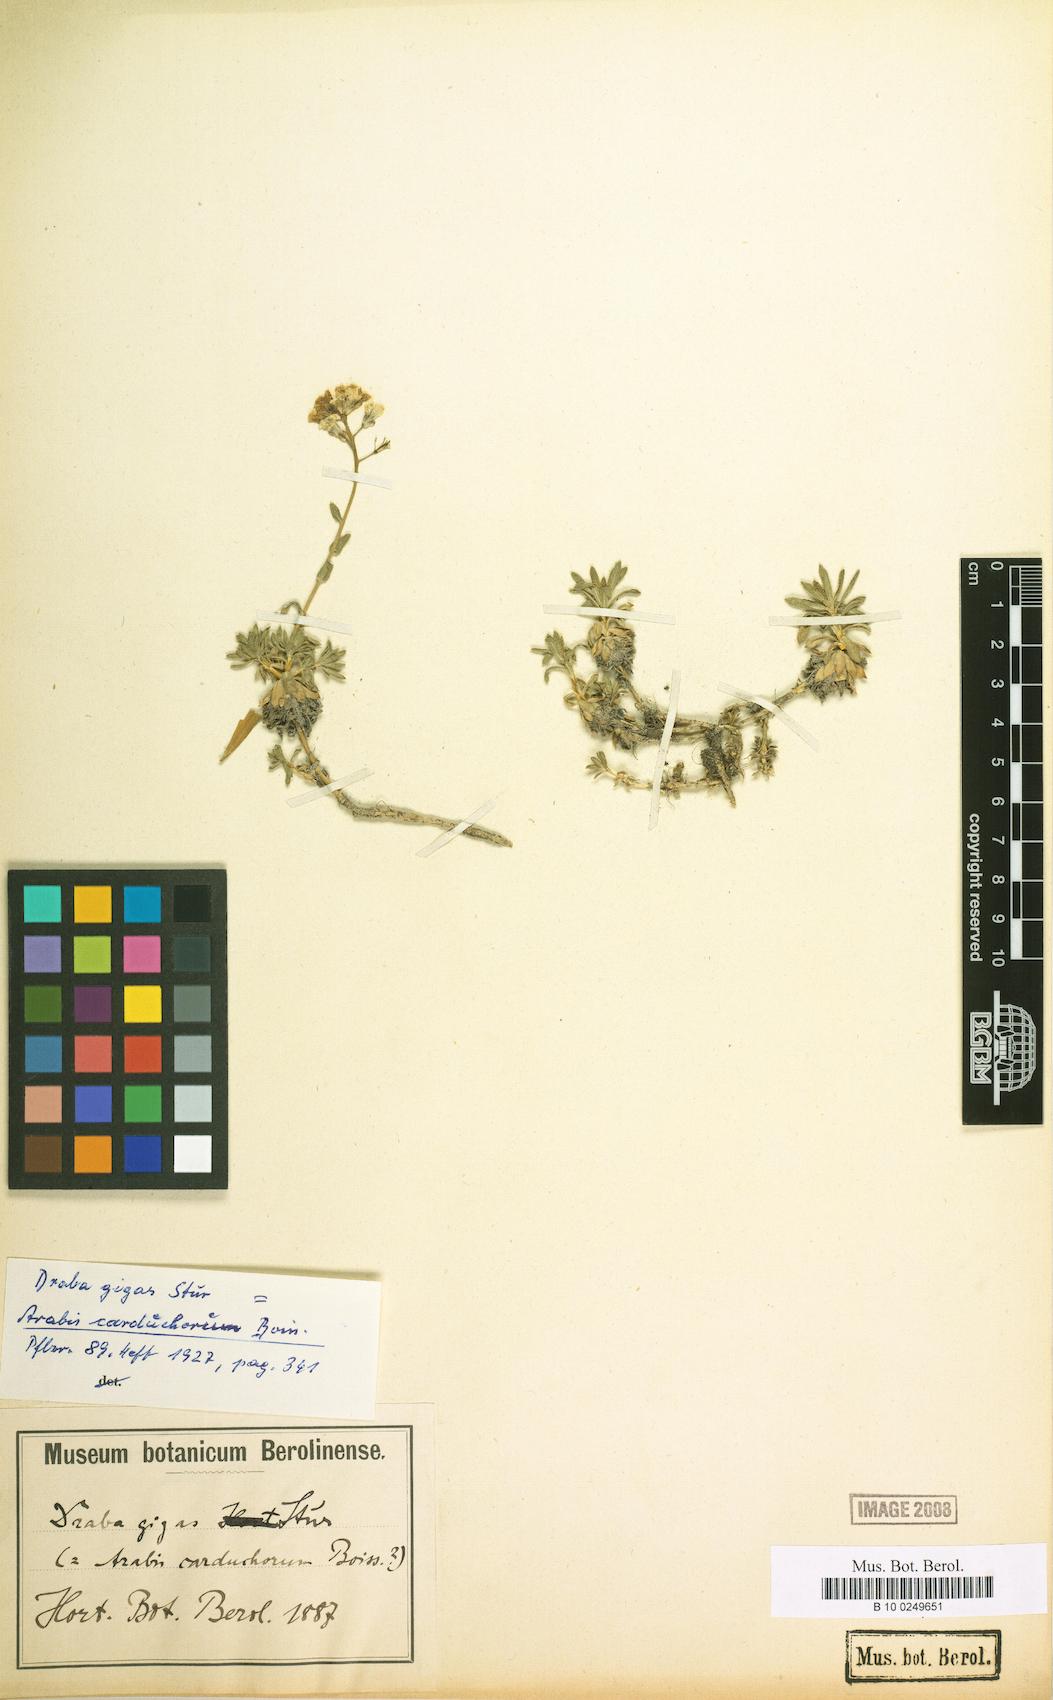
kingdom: Plantae
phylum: Tracheophyta
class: Magnoliopsida
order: Brassicales
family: Brassicaceae
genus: Arabis
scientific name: Arabis carduchorum
